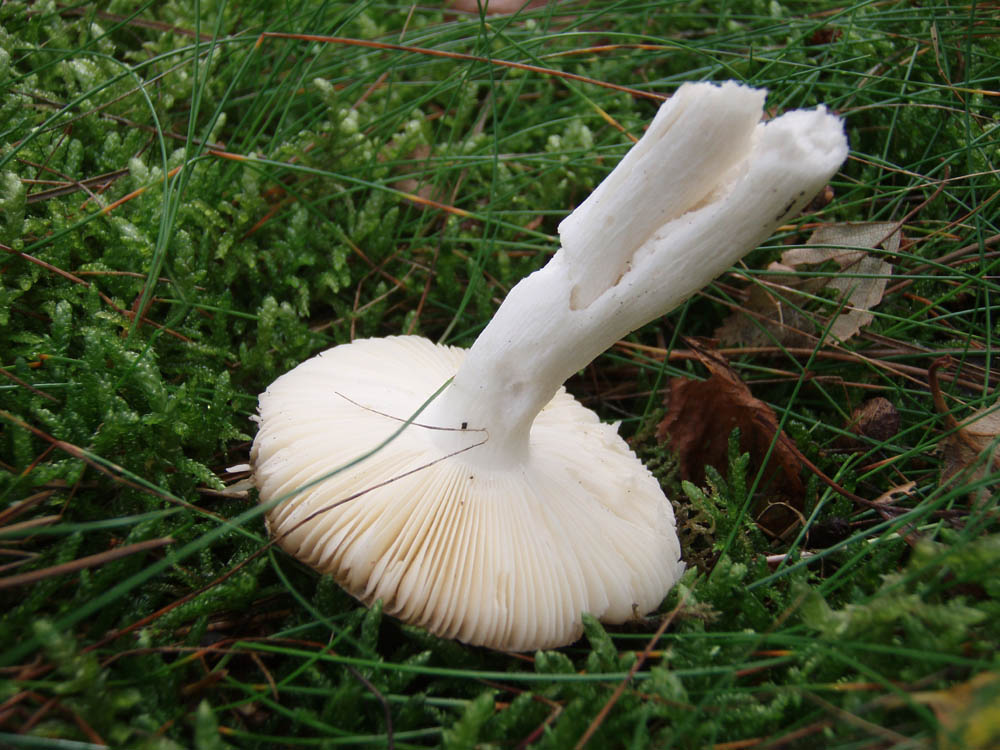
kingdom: Fungi
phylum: Basidiomycota
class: Agaricomycetes
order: Russulales
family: Russulaceae
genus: Russula
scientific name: Russula nauseosa
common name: spinkel skørhat
